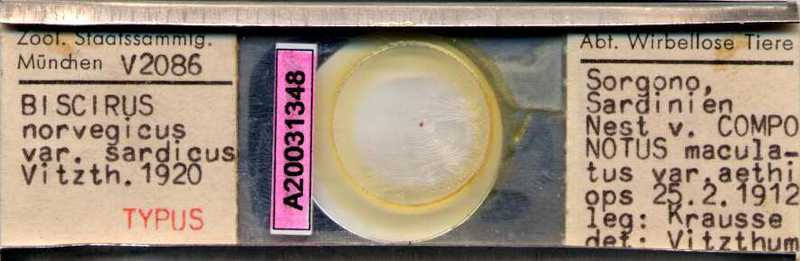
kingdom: Animalia
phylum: Arthropoda
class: Arachnida
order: Trombidiformes
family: Bdellidae
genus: Biscirus
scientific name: Biscirus norvegicus
